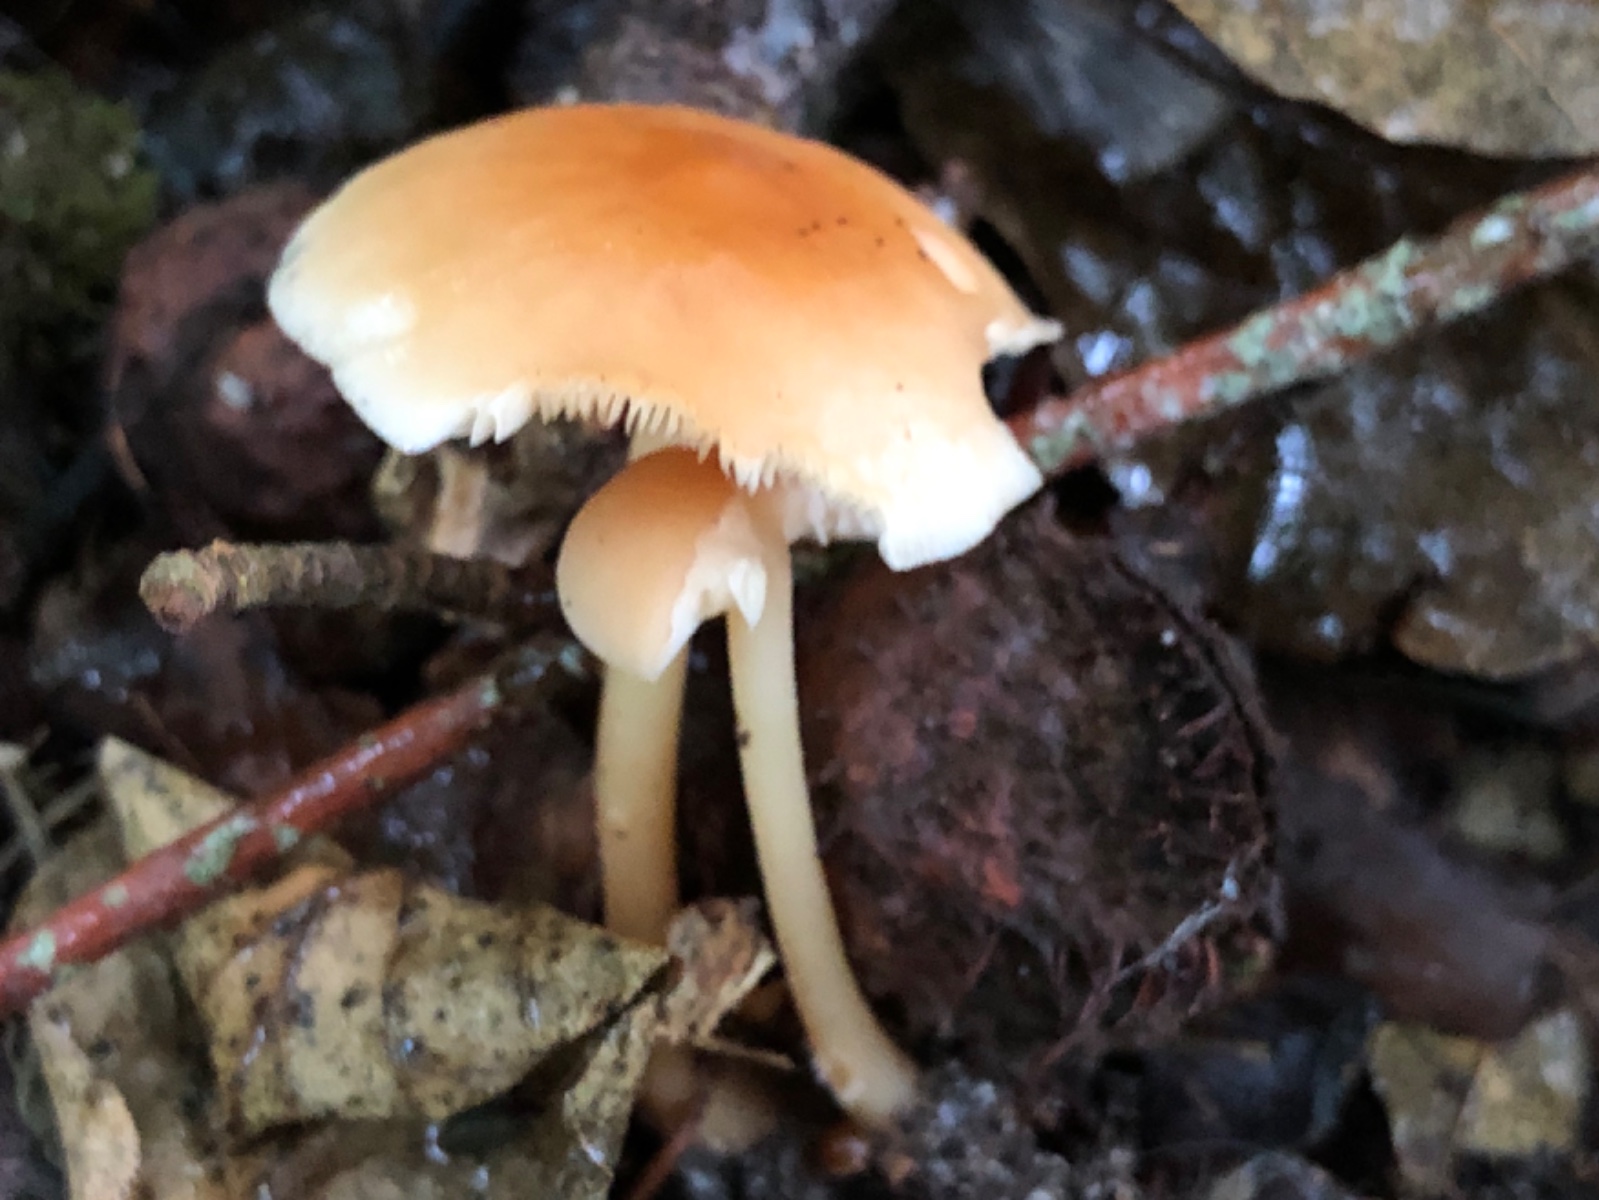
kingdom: Fungi
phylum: Basidiomycota
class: Agaricomycetes
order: Agaricales
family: Omphalotaceae
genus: Gymnopus
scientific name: Gymnopus dryophilus
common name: løv-fladhat
